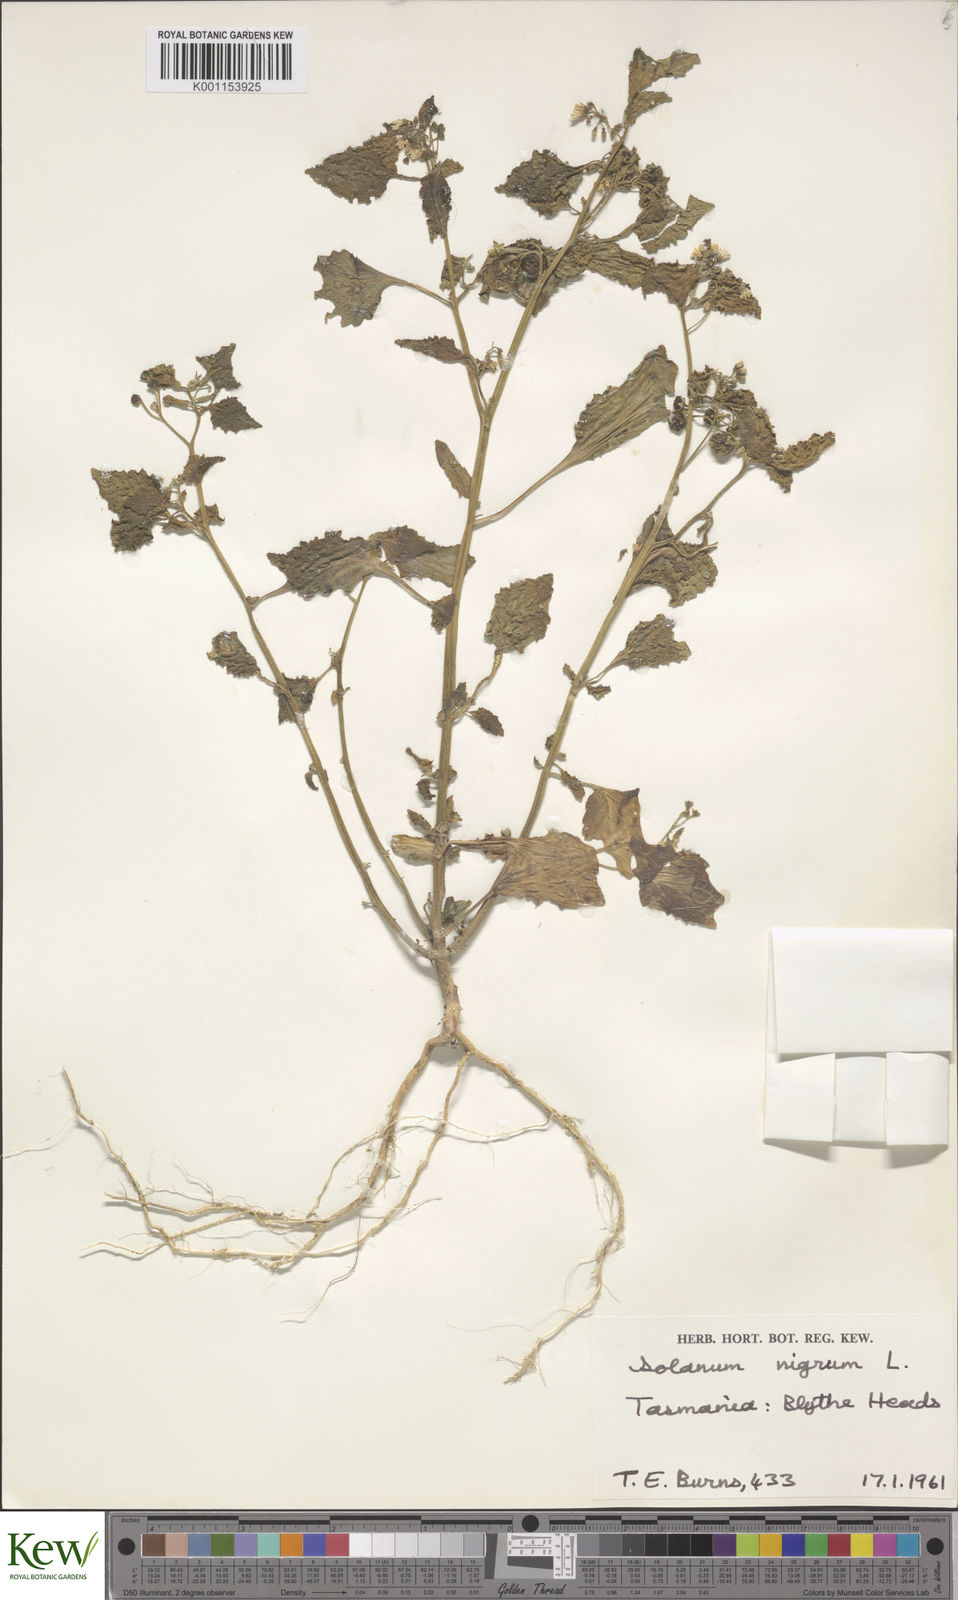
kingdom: Plantae
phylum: Tracheophyta
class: Magnoliopsida
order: Solanales
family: Solanaceae
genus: Solanum
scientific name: Solanum nigrum
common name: Black nightshade
